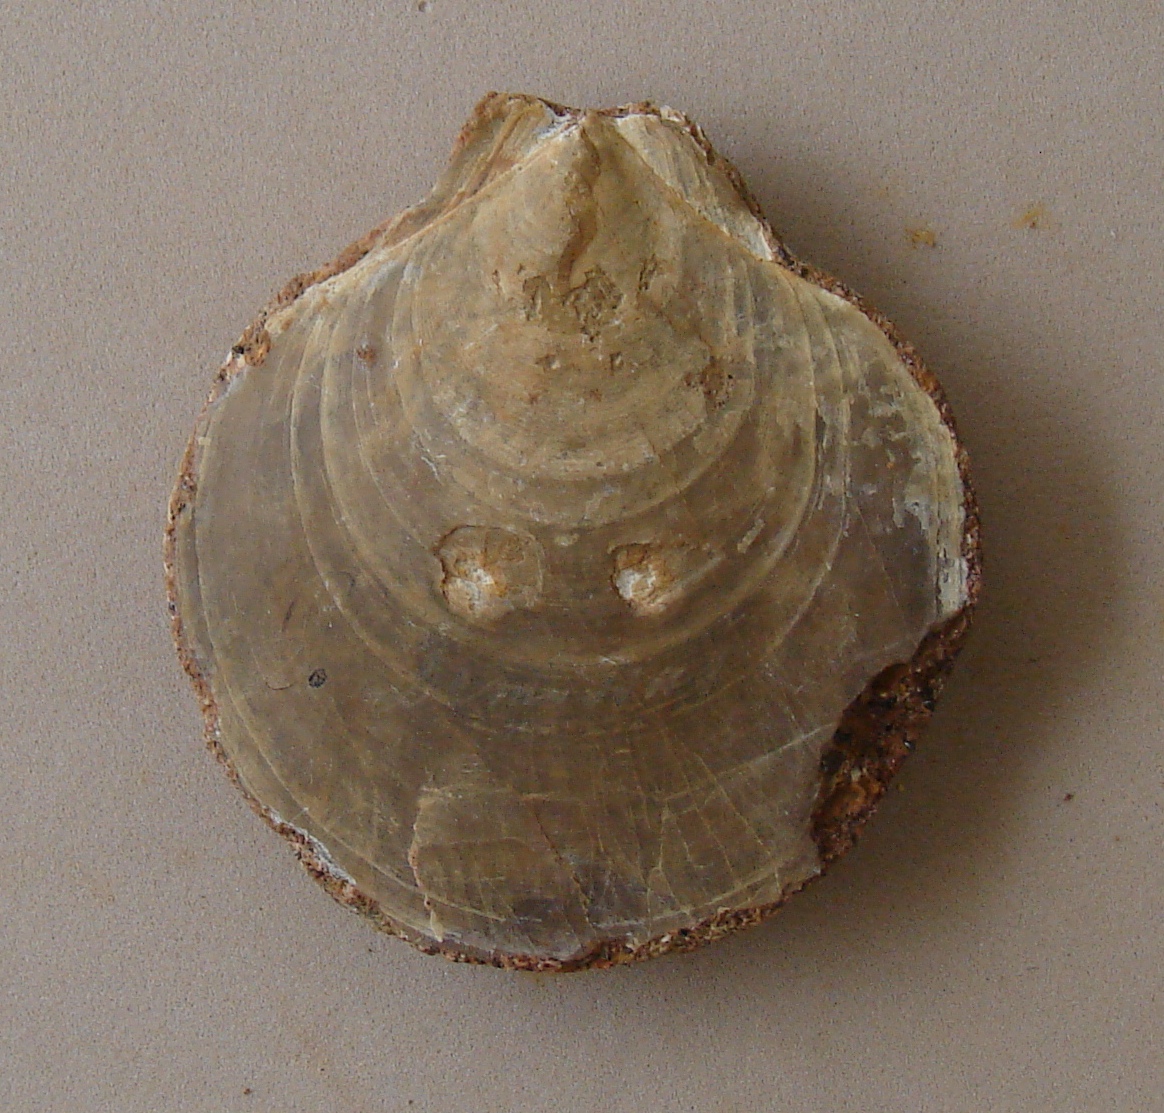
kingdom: Animalia
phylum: Mollusca
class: Bivalvia
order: Pectinida
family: Entoliidae
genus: Entolium
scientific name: Entolium corneolum
